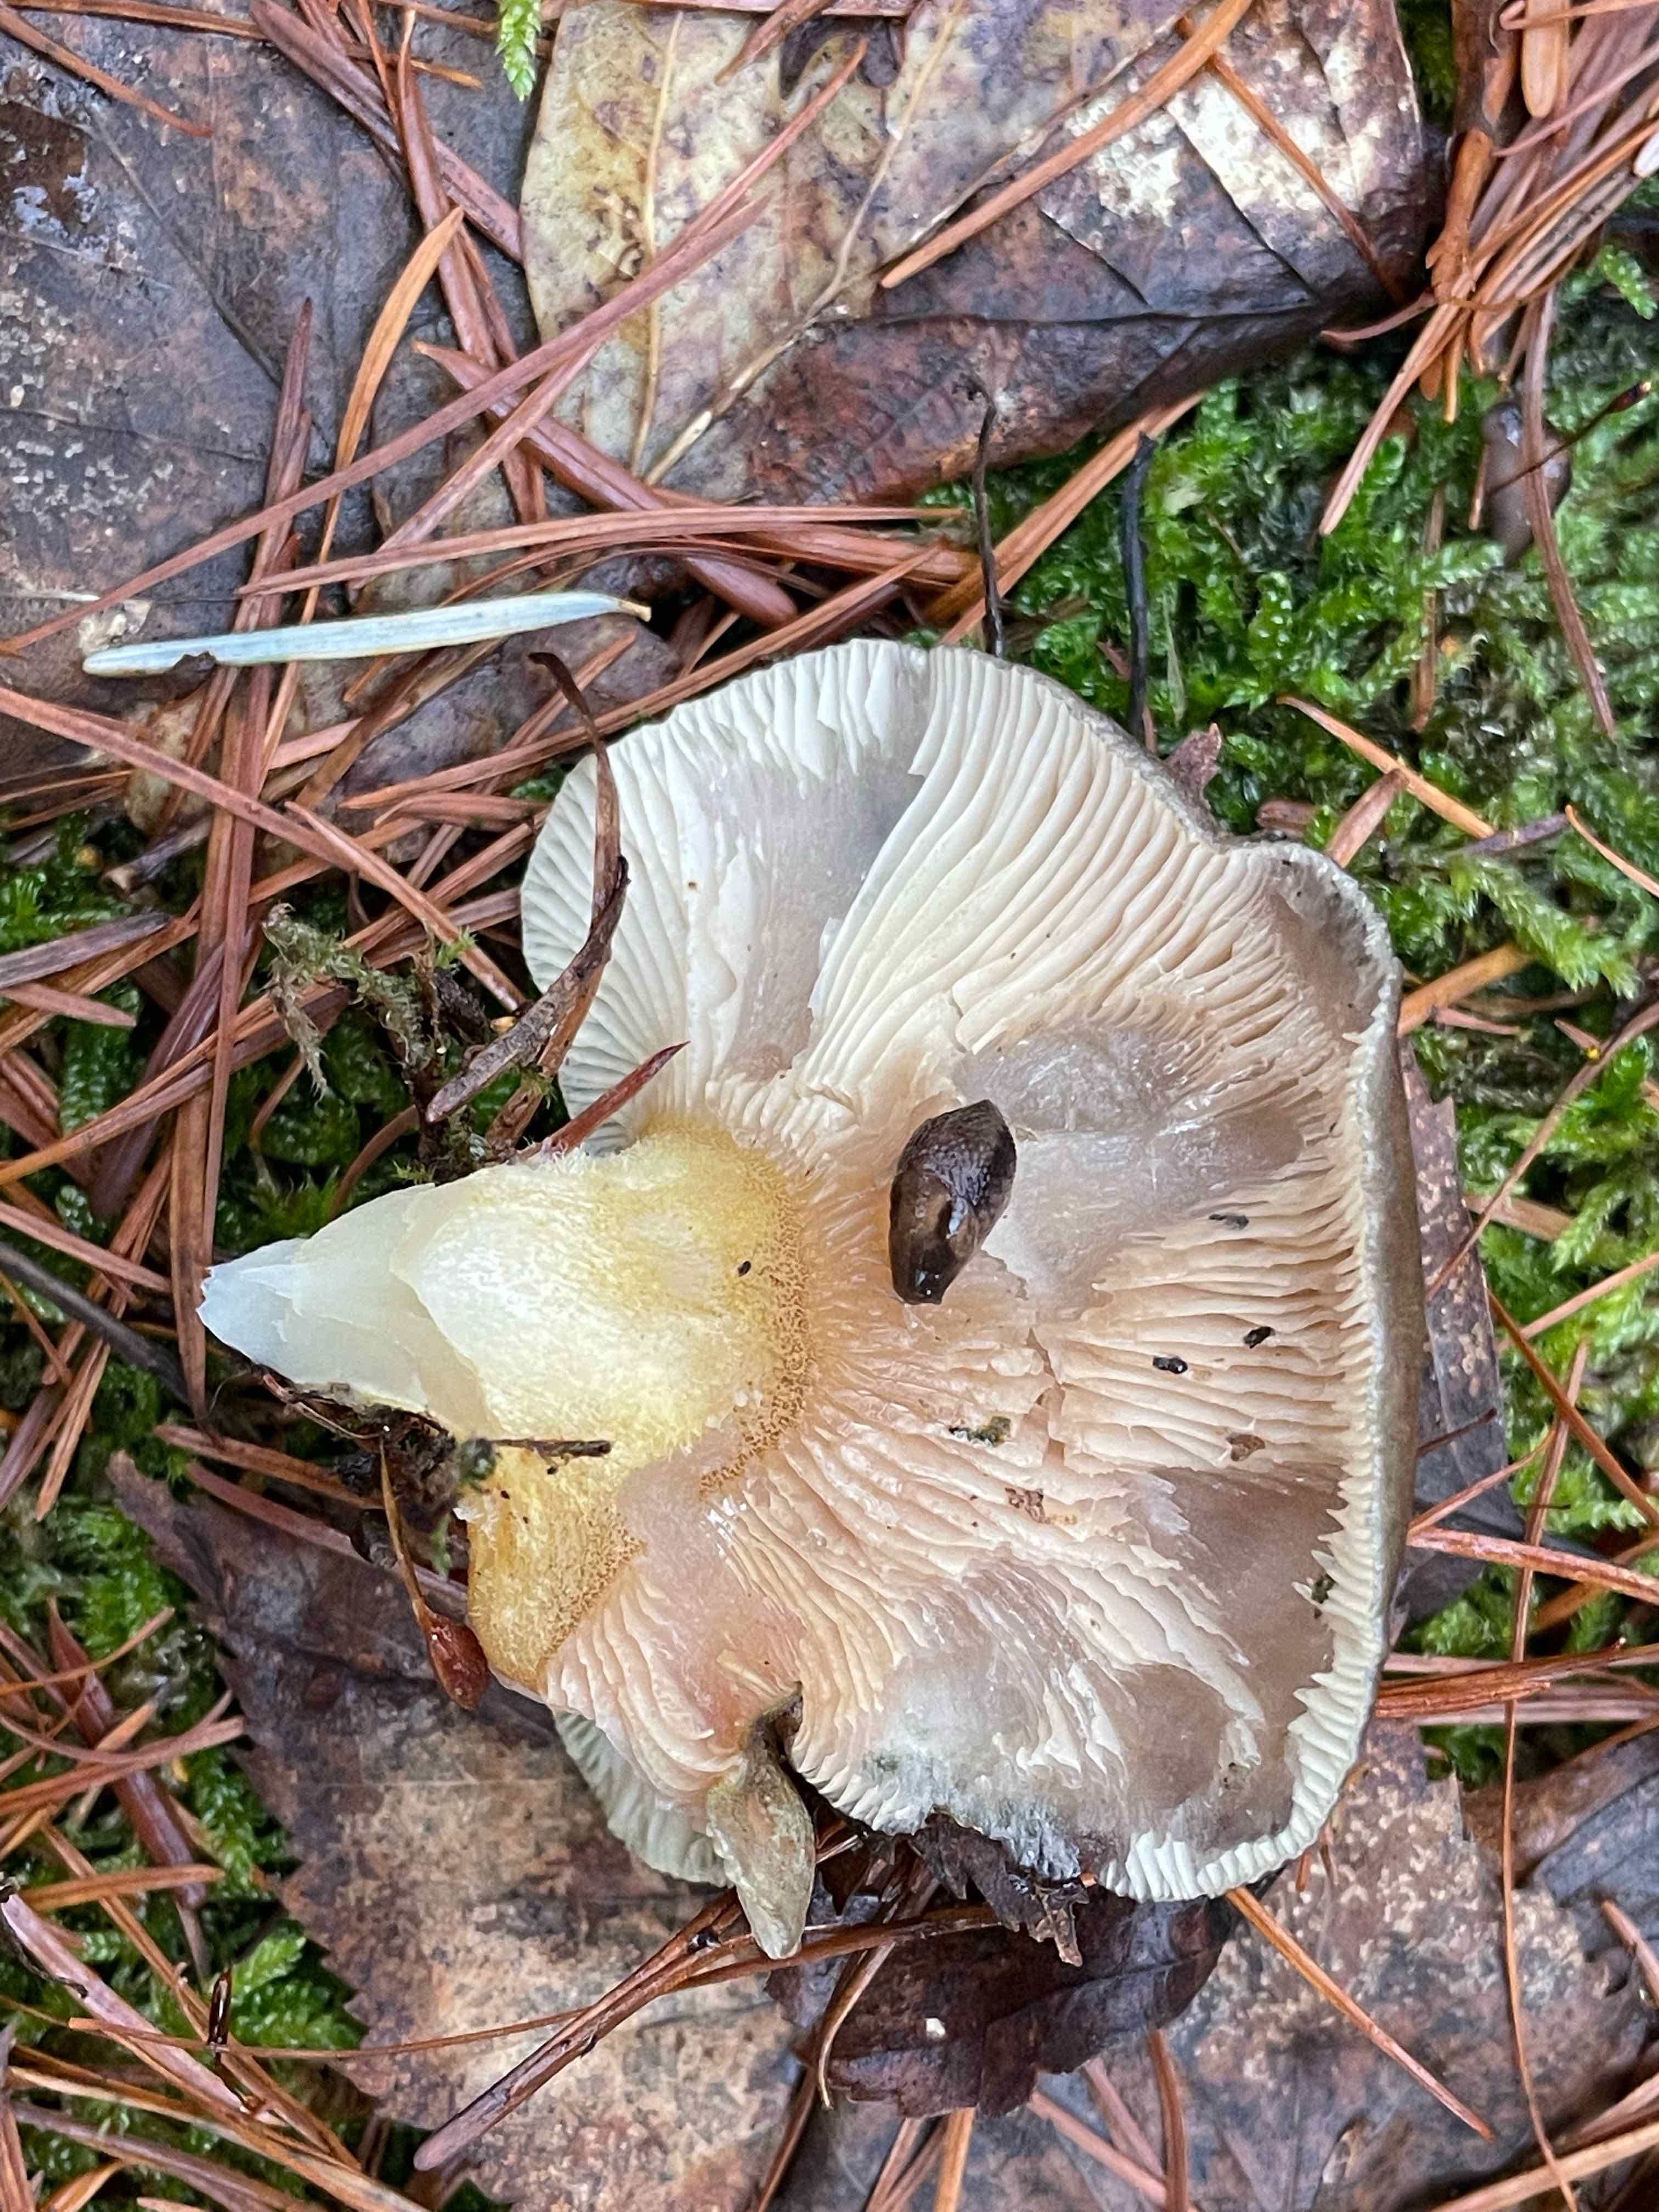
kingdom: Fungi
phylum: Basidiomycota
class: Agaricomycetes
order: Agaricales
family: Sarcomyxaceae
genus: Sarcomyxa
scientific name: Sarcomyxa serotina
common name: gummihat
